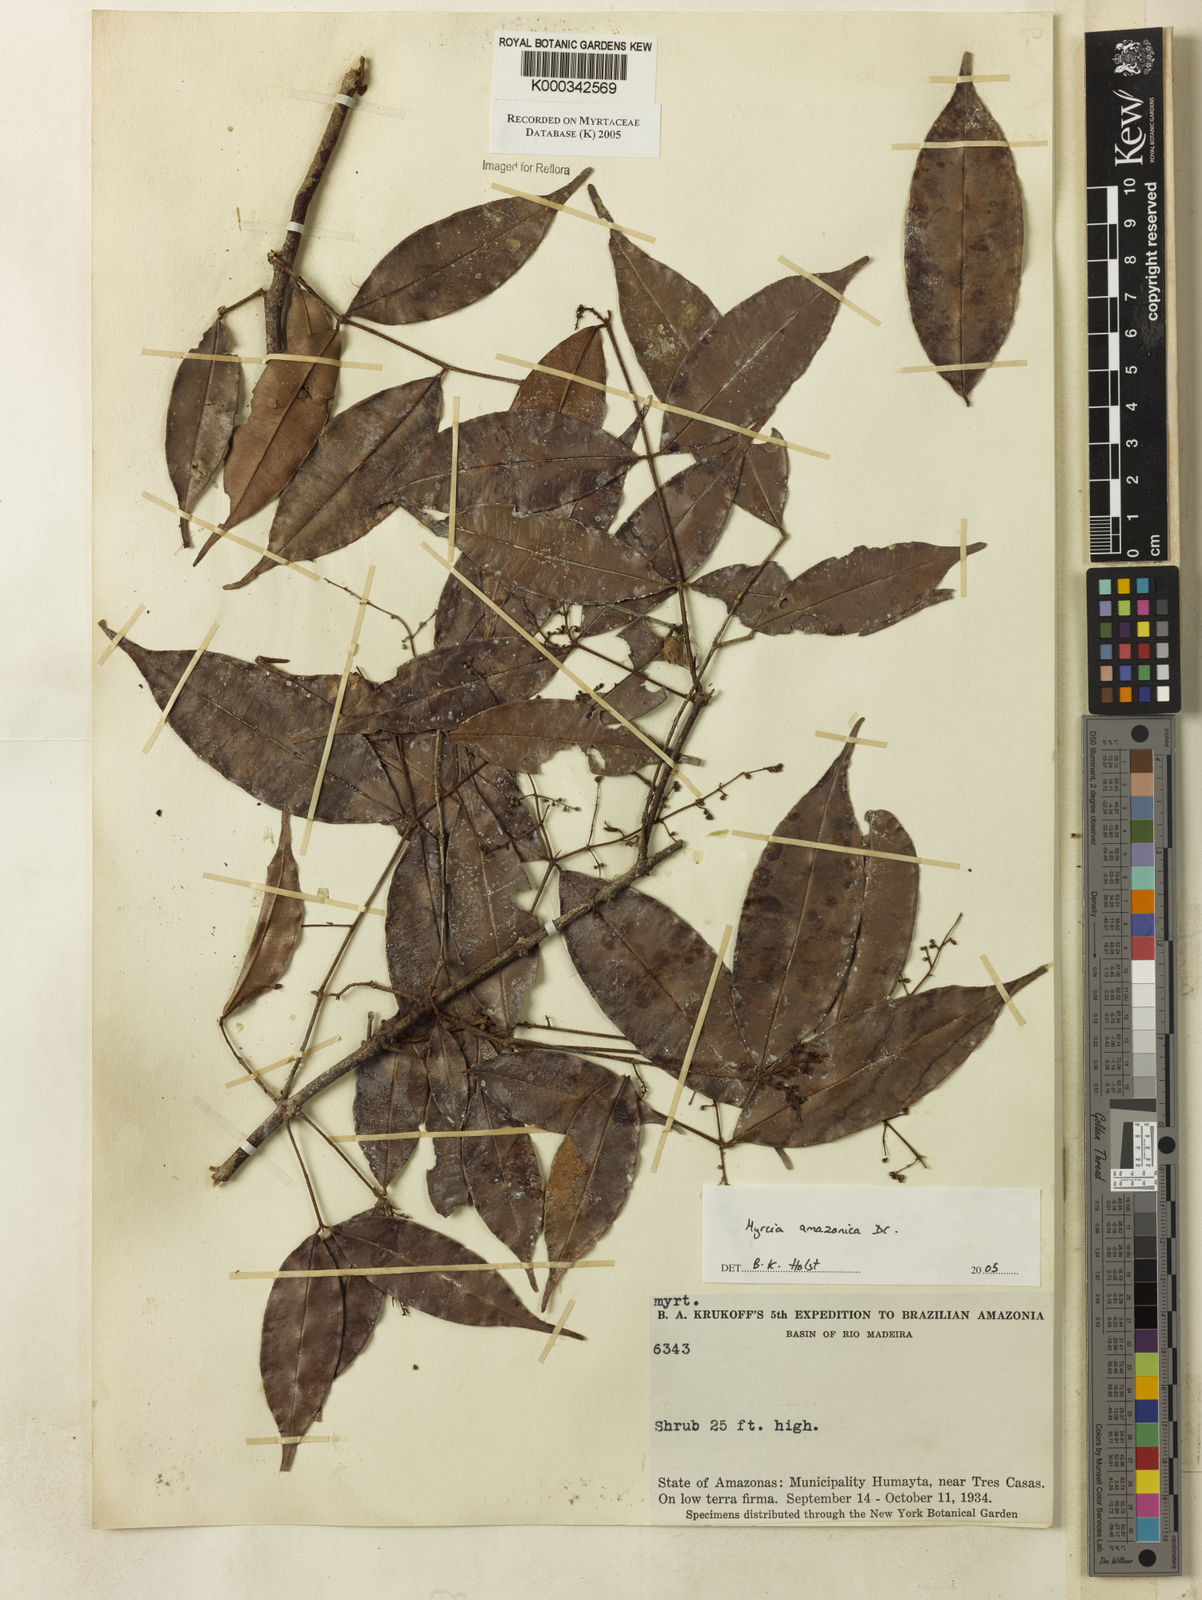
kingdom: Plantae
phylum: Tracheophyta
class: Magnoliopsida
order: Myrtales
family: Myrtaceae
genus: Myrcia
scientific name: Myrcia amazonica
